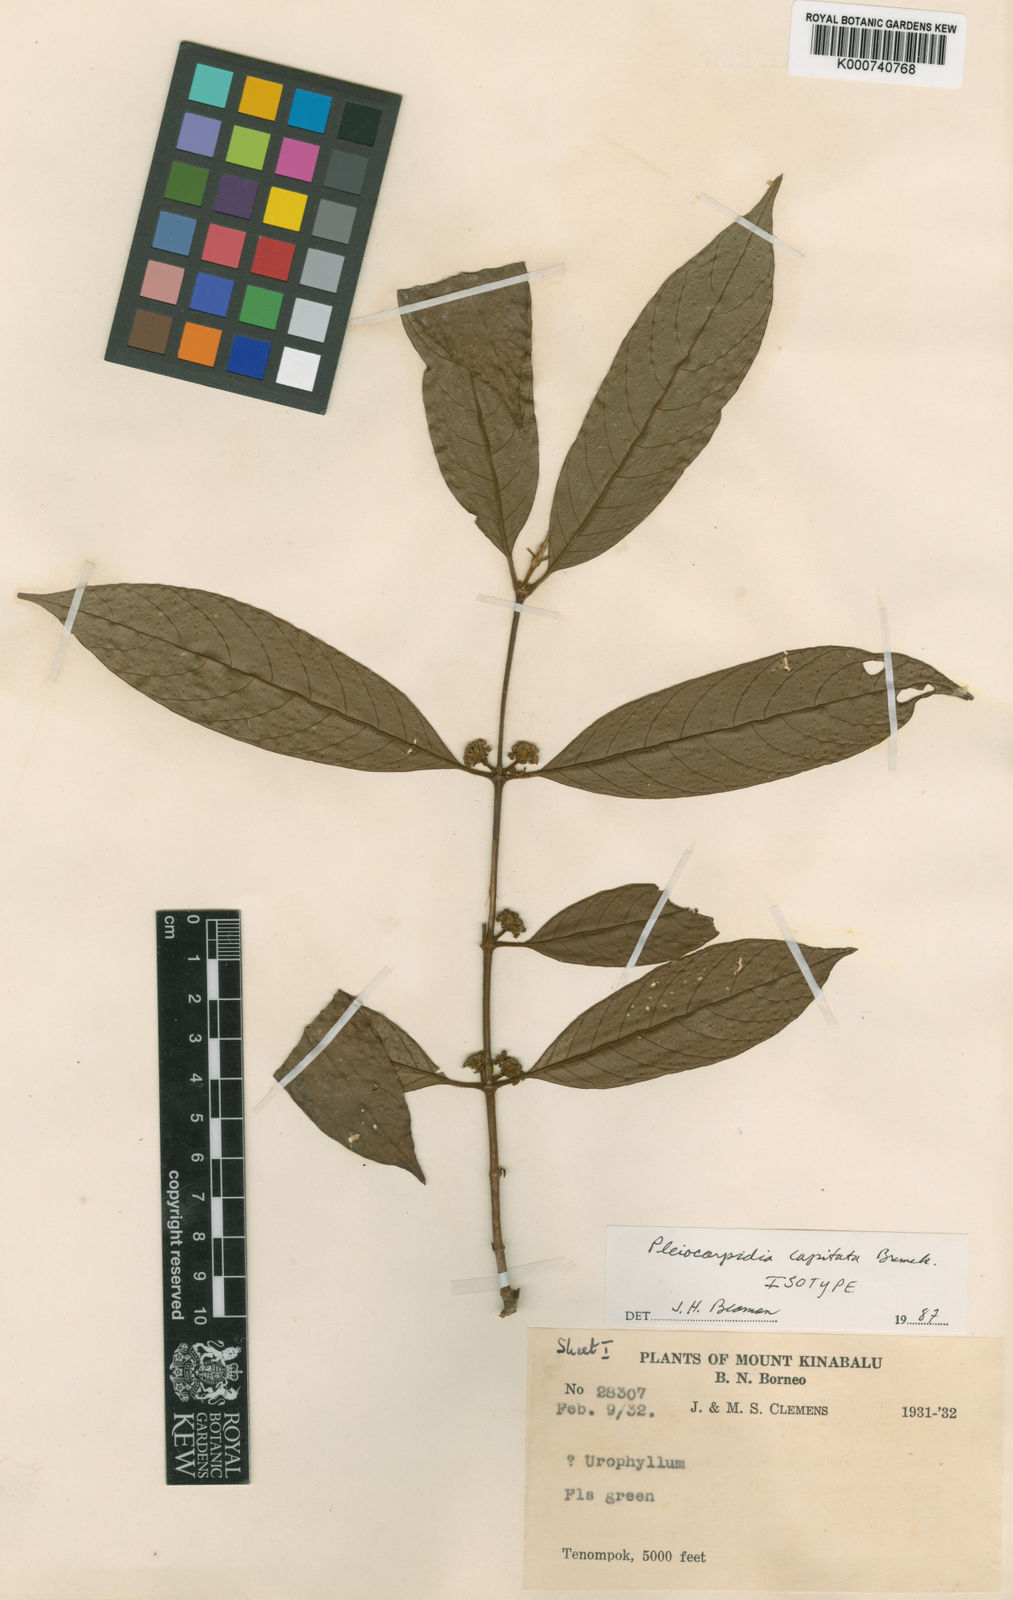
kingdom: Plantae
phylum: Tracheophyta
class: Magnoliopsida
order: Gentianales
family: Rubiaceae
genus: Urophyllum
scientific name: Urophyllum clemensiorum
